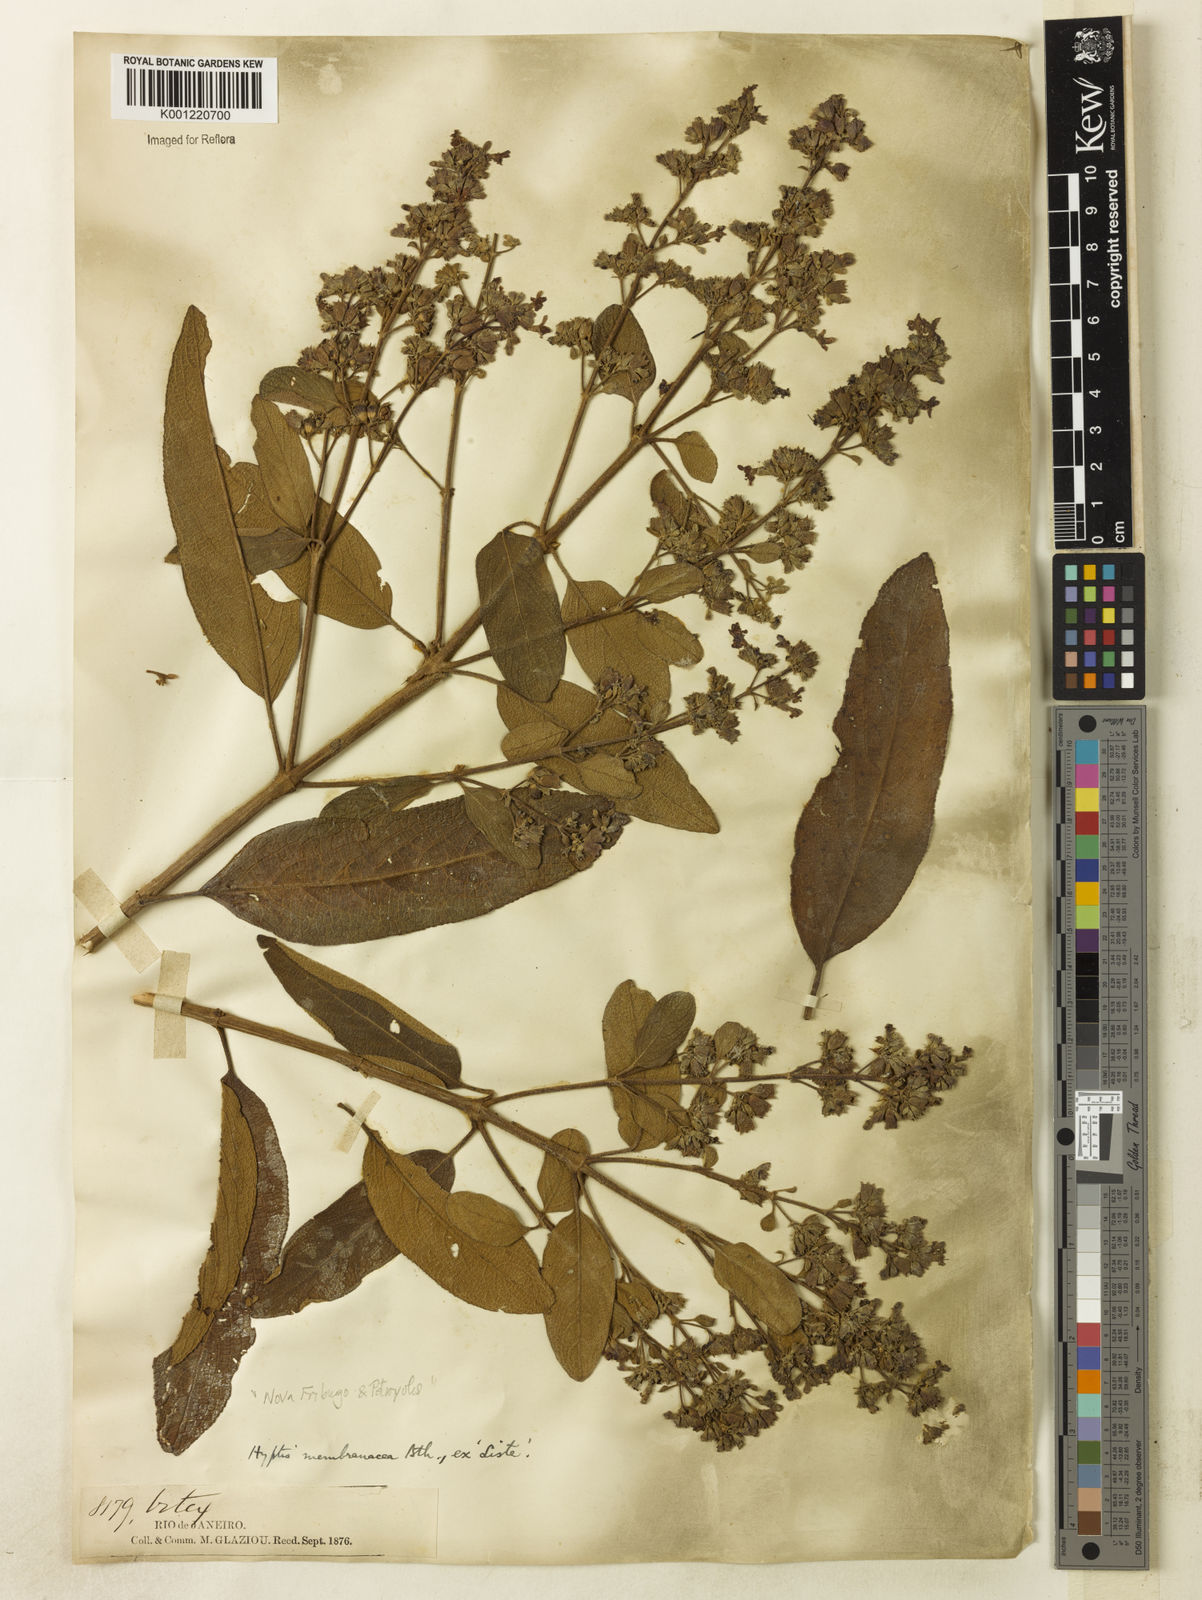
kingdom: Plantae
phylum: Tracheophyta
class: Magnoliopsida
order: Lamiales
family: Lamiaceae
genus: Hyptidendron
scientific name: Hyptidendron asperrimum
